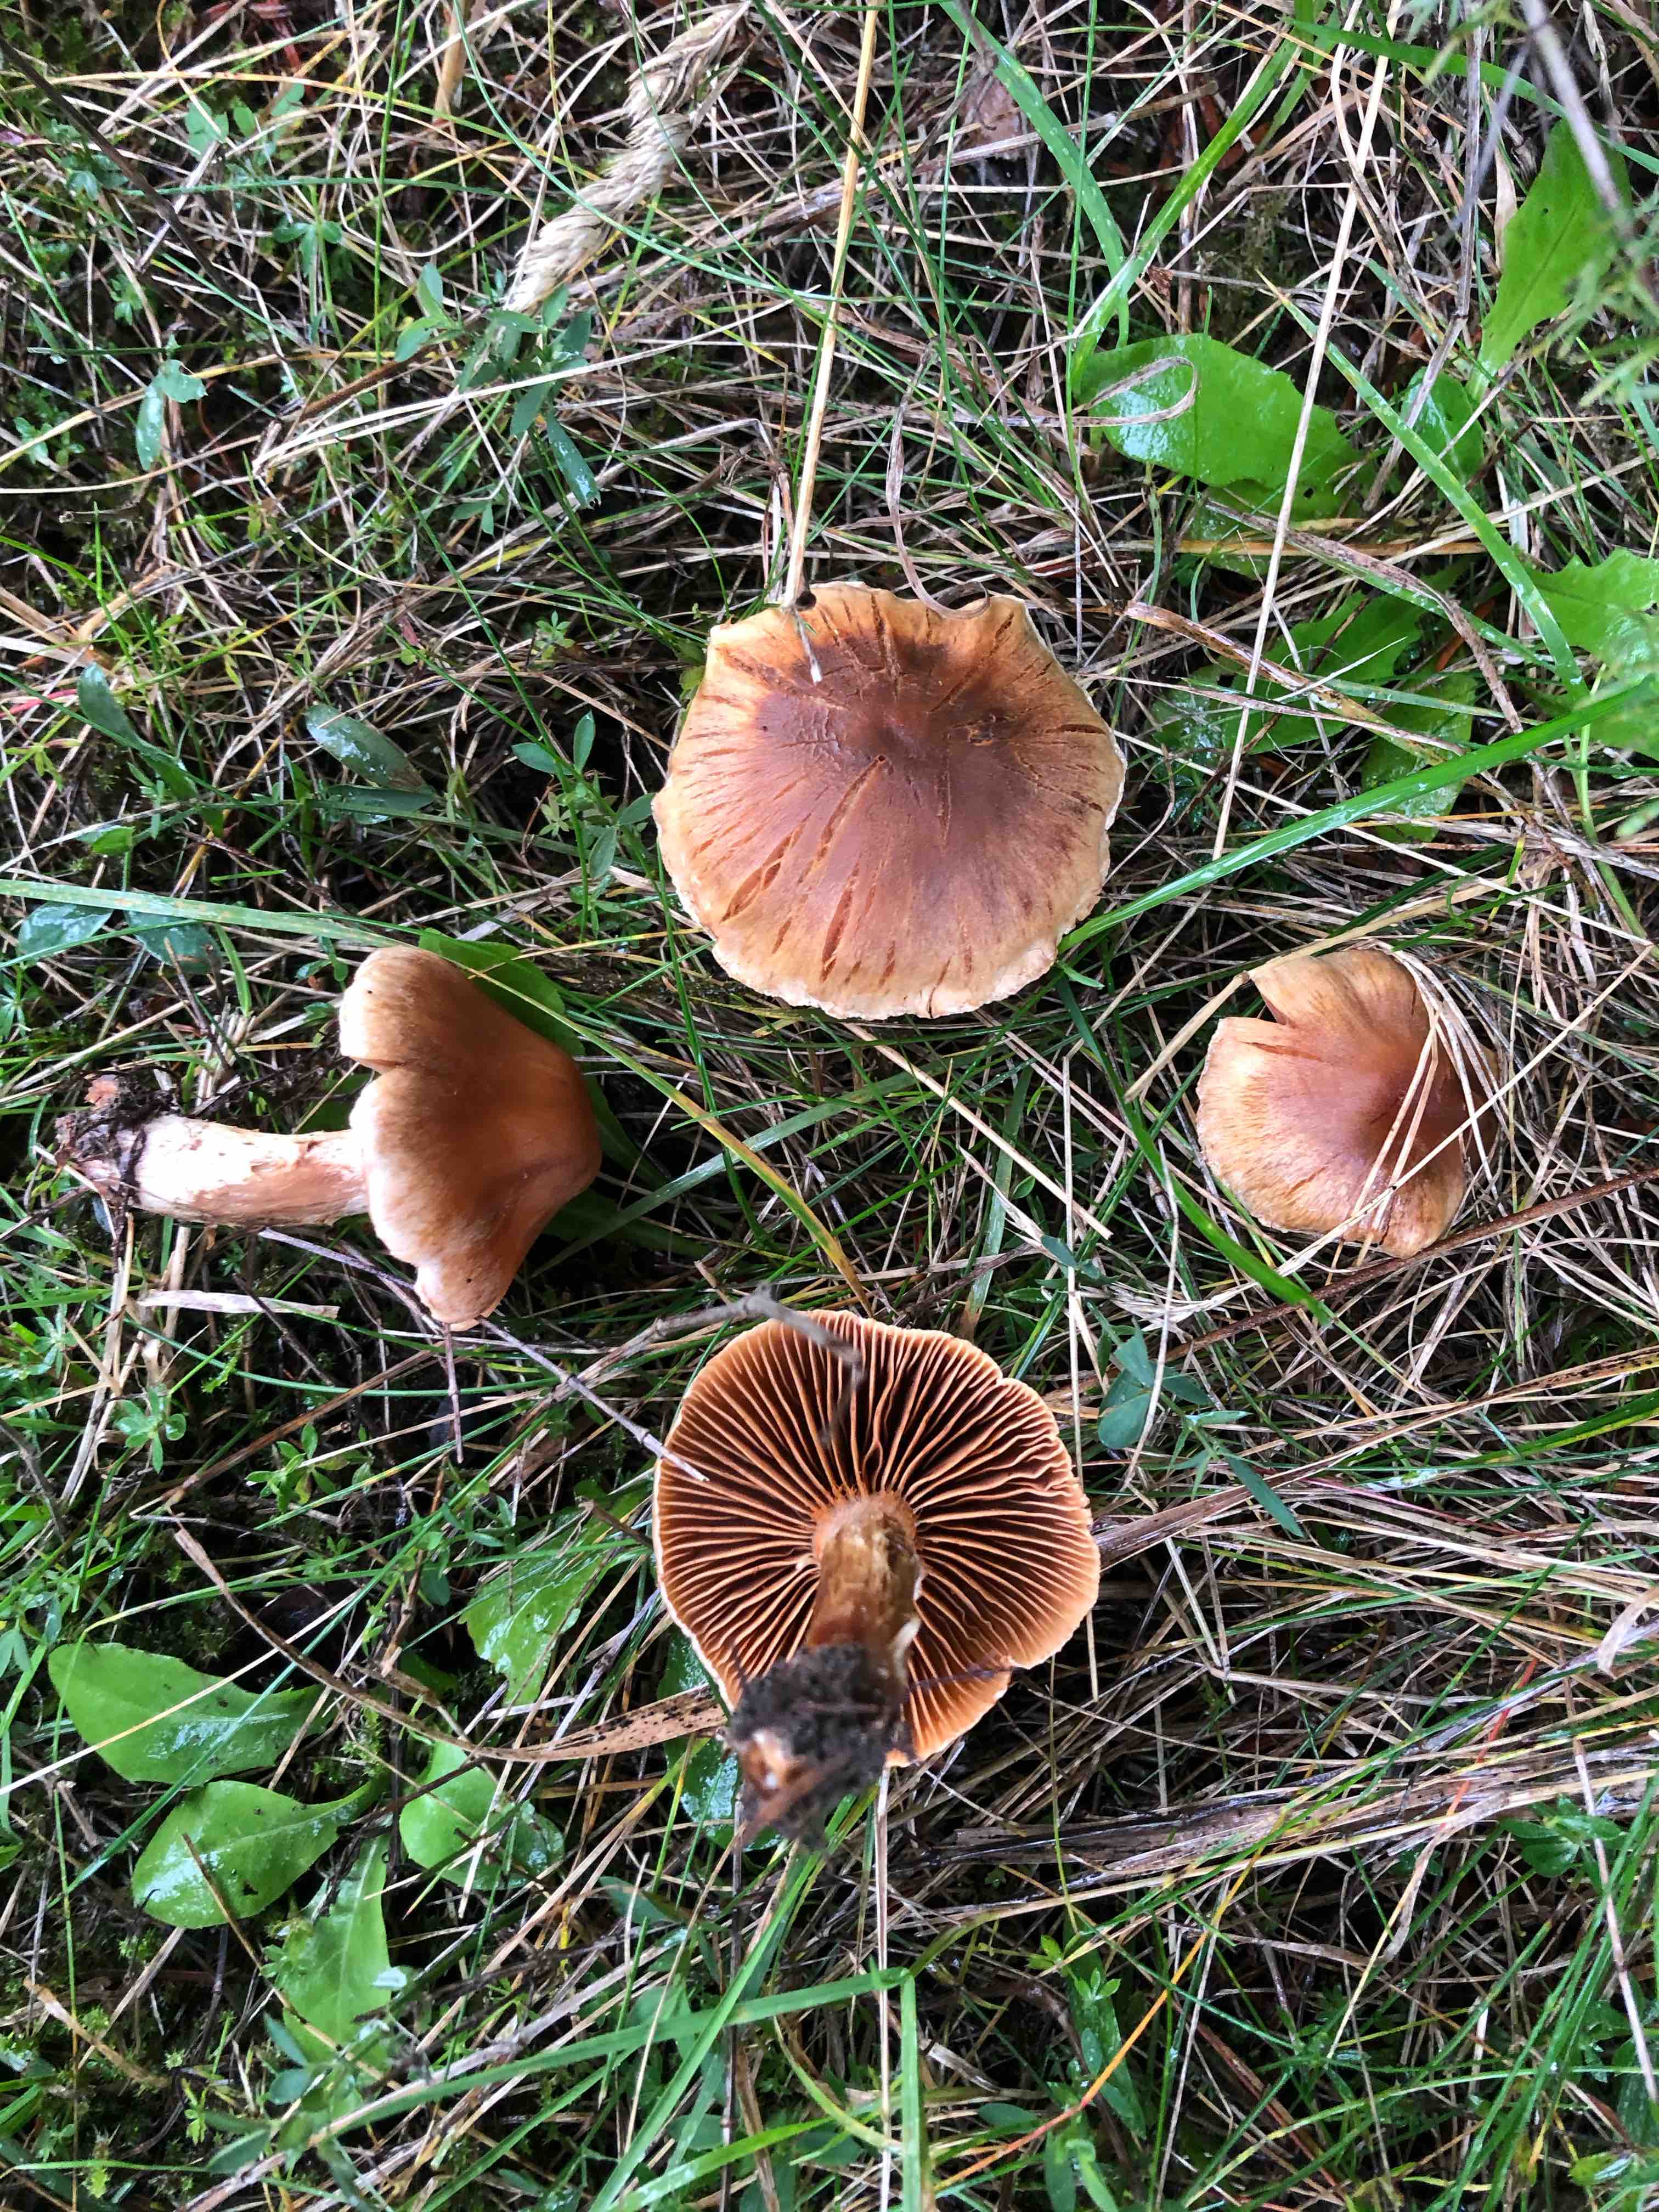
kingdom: Fungi
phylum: Basidiomycota
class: Agaricomycetes
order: Agaricales
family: Cortinariaceae
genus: Cortinarius
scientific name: Cortinarius
